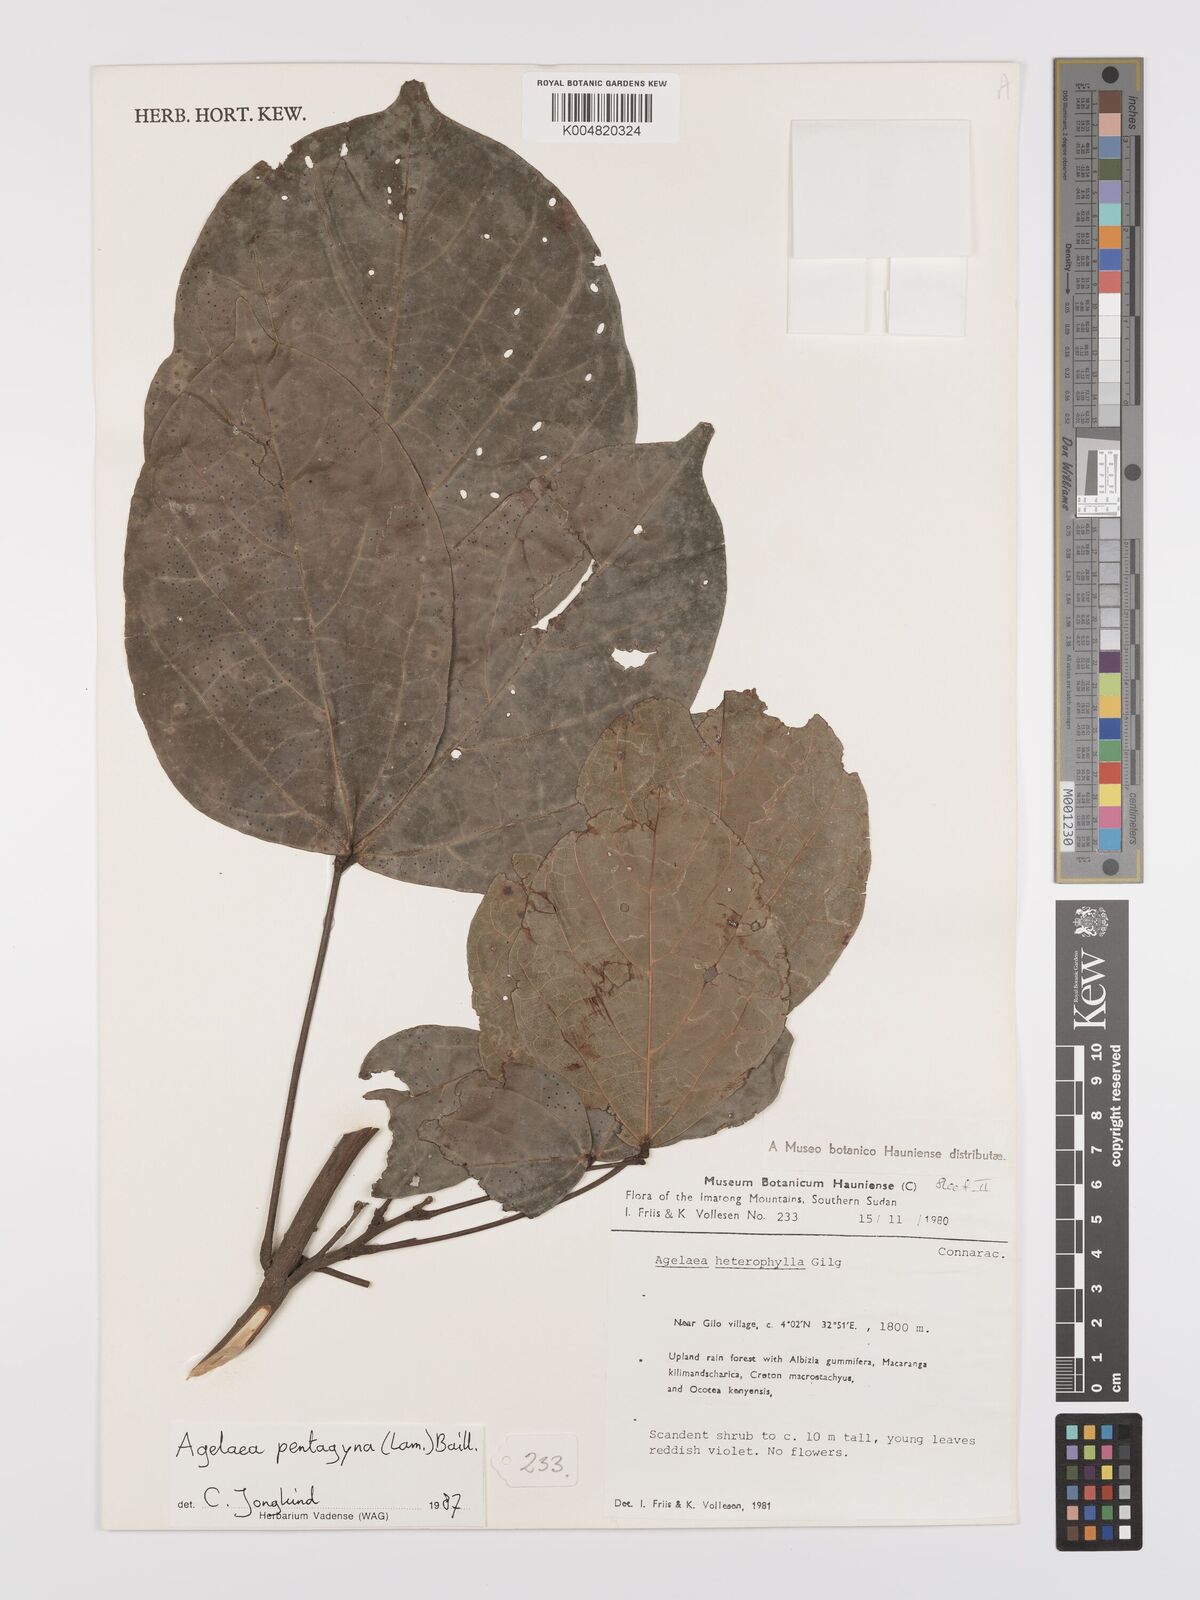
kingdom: Plantae
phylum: Tracheophyta
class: Magnoliopsida
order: Oxalidales
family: Connaraceae
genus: Agelaea
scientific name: Agelaea pentagyna
